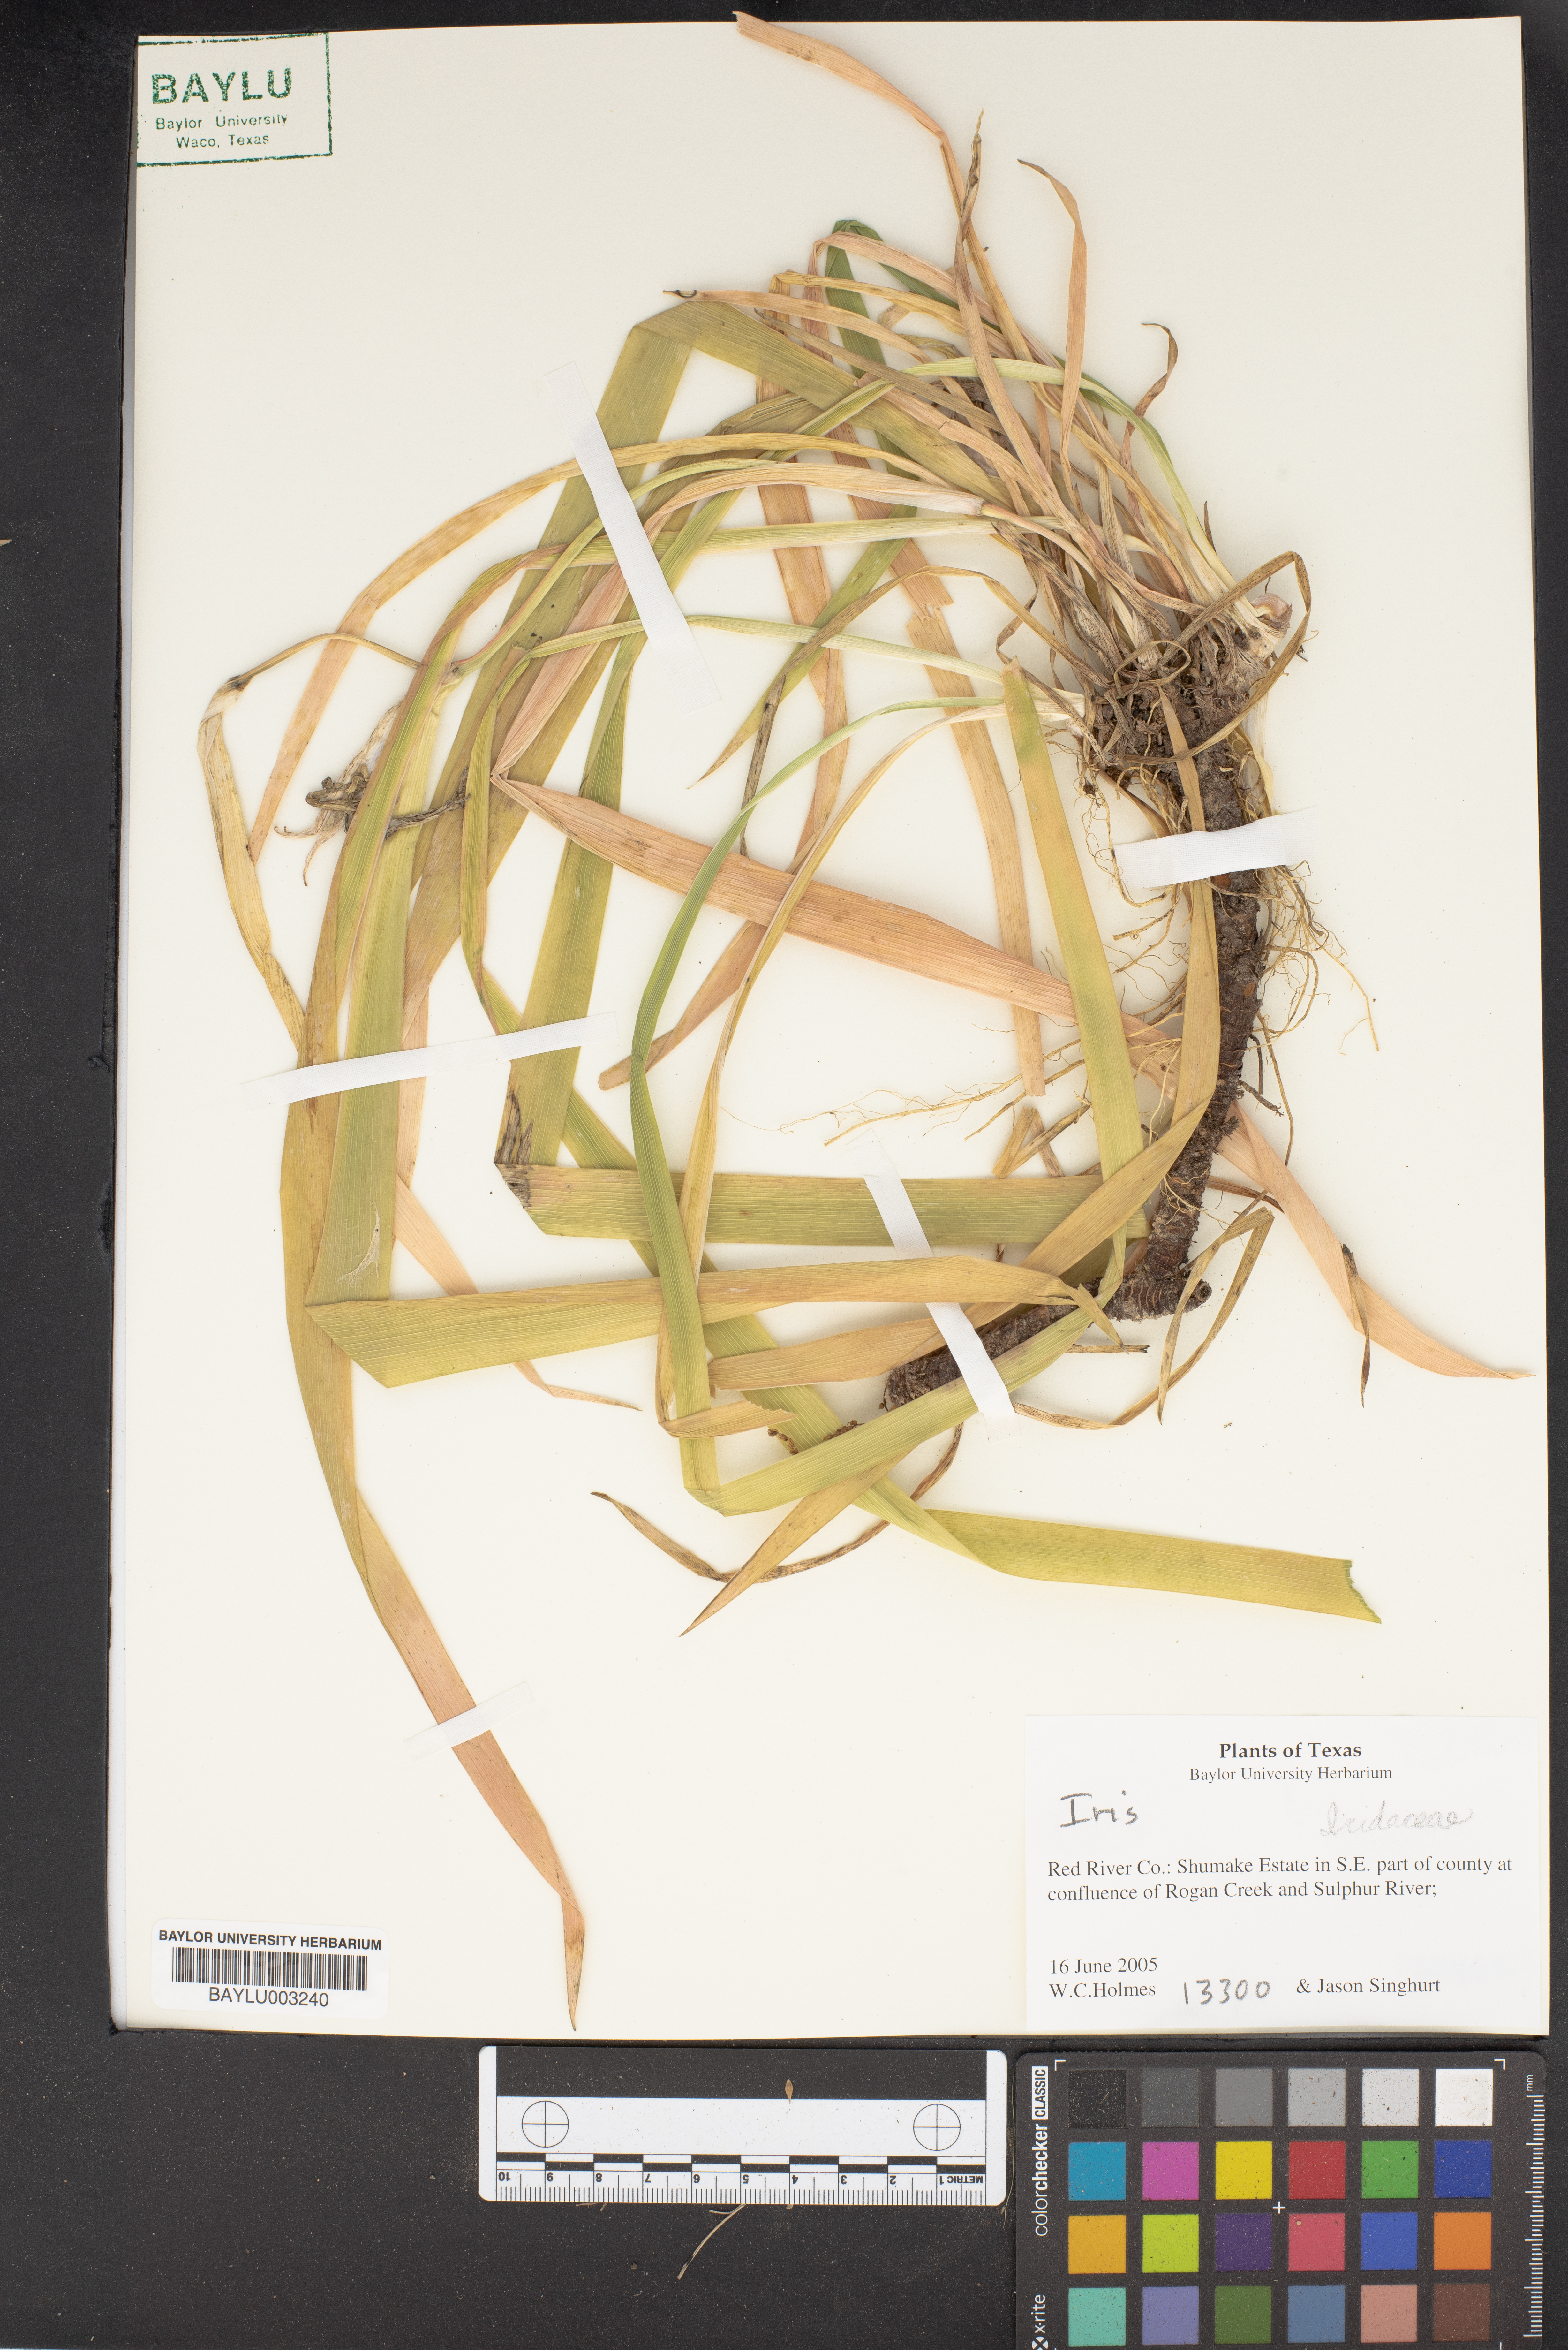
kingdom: Plantae
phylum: Tracheophyta
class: Liliopsida
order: Asparagales
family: Iridaceae
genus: Iris
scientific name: Iris violipurpurea
